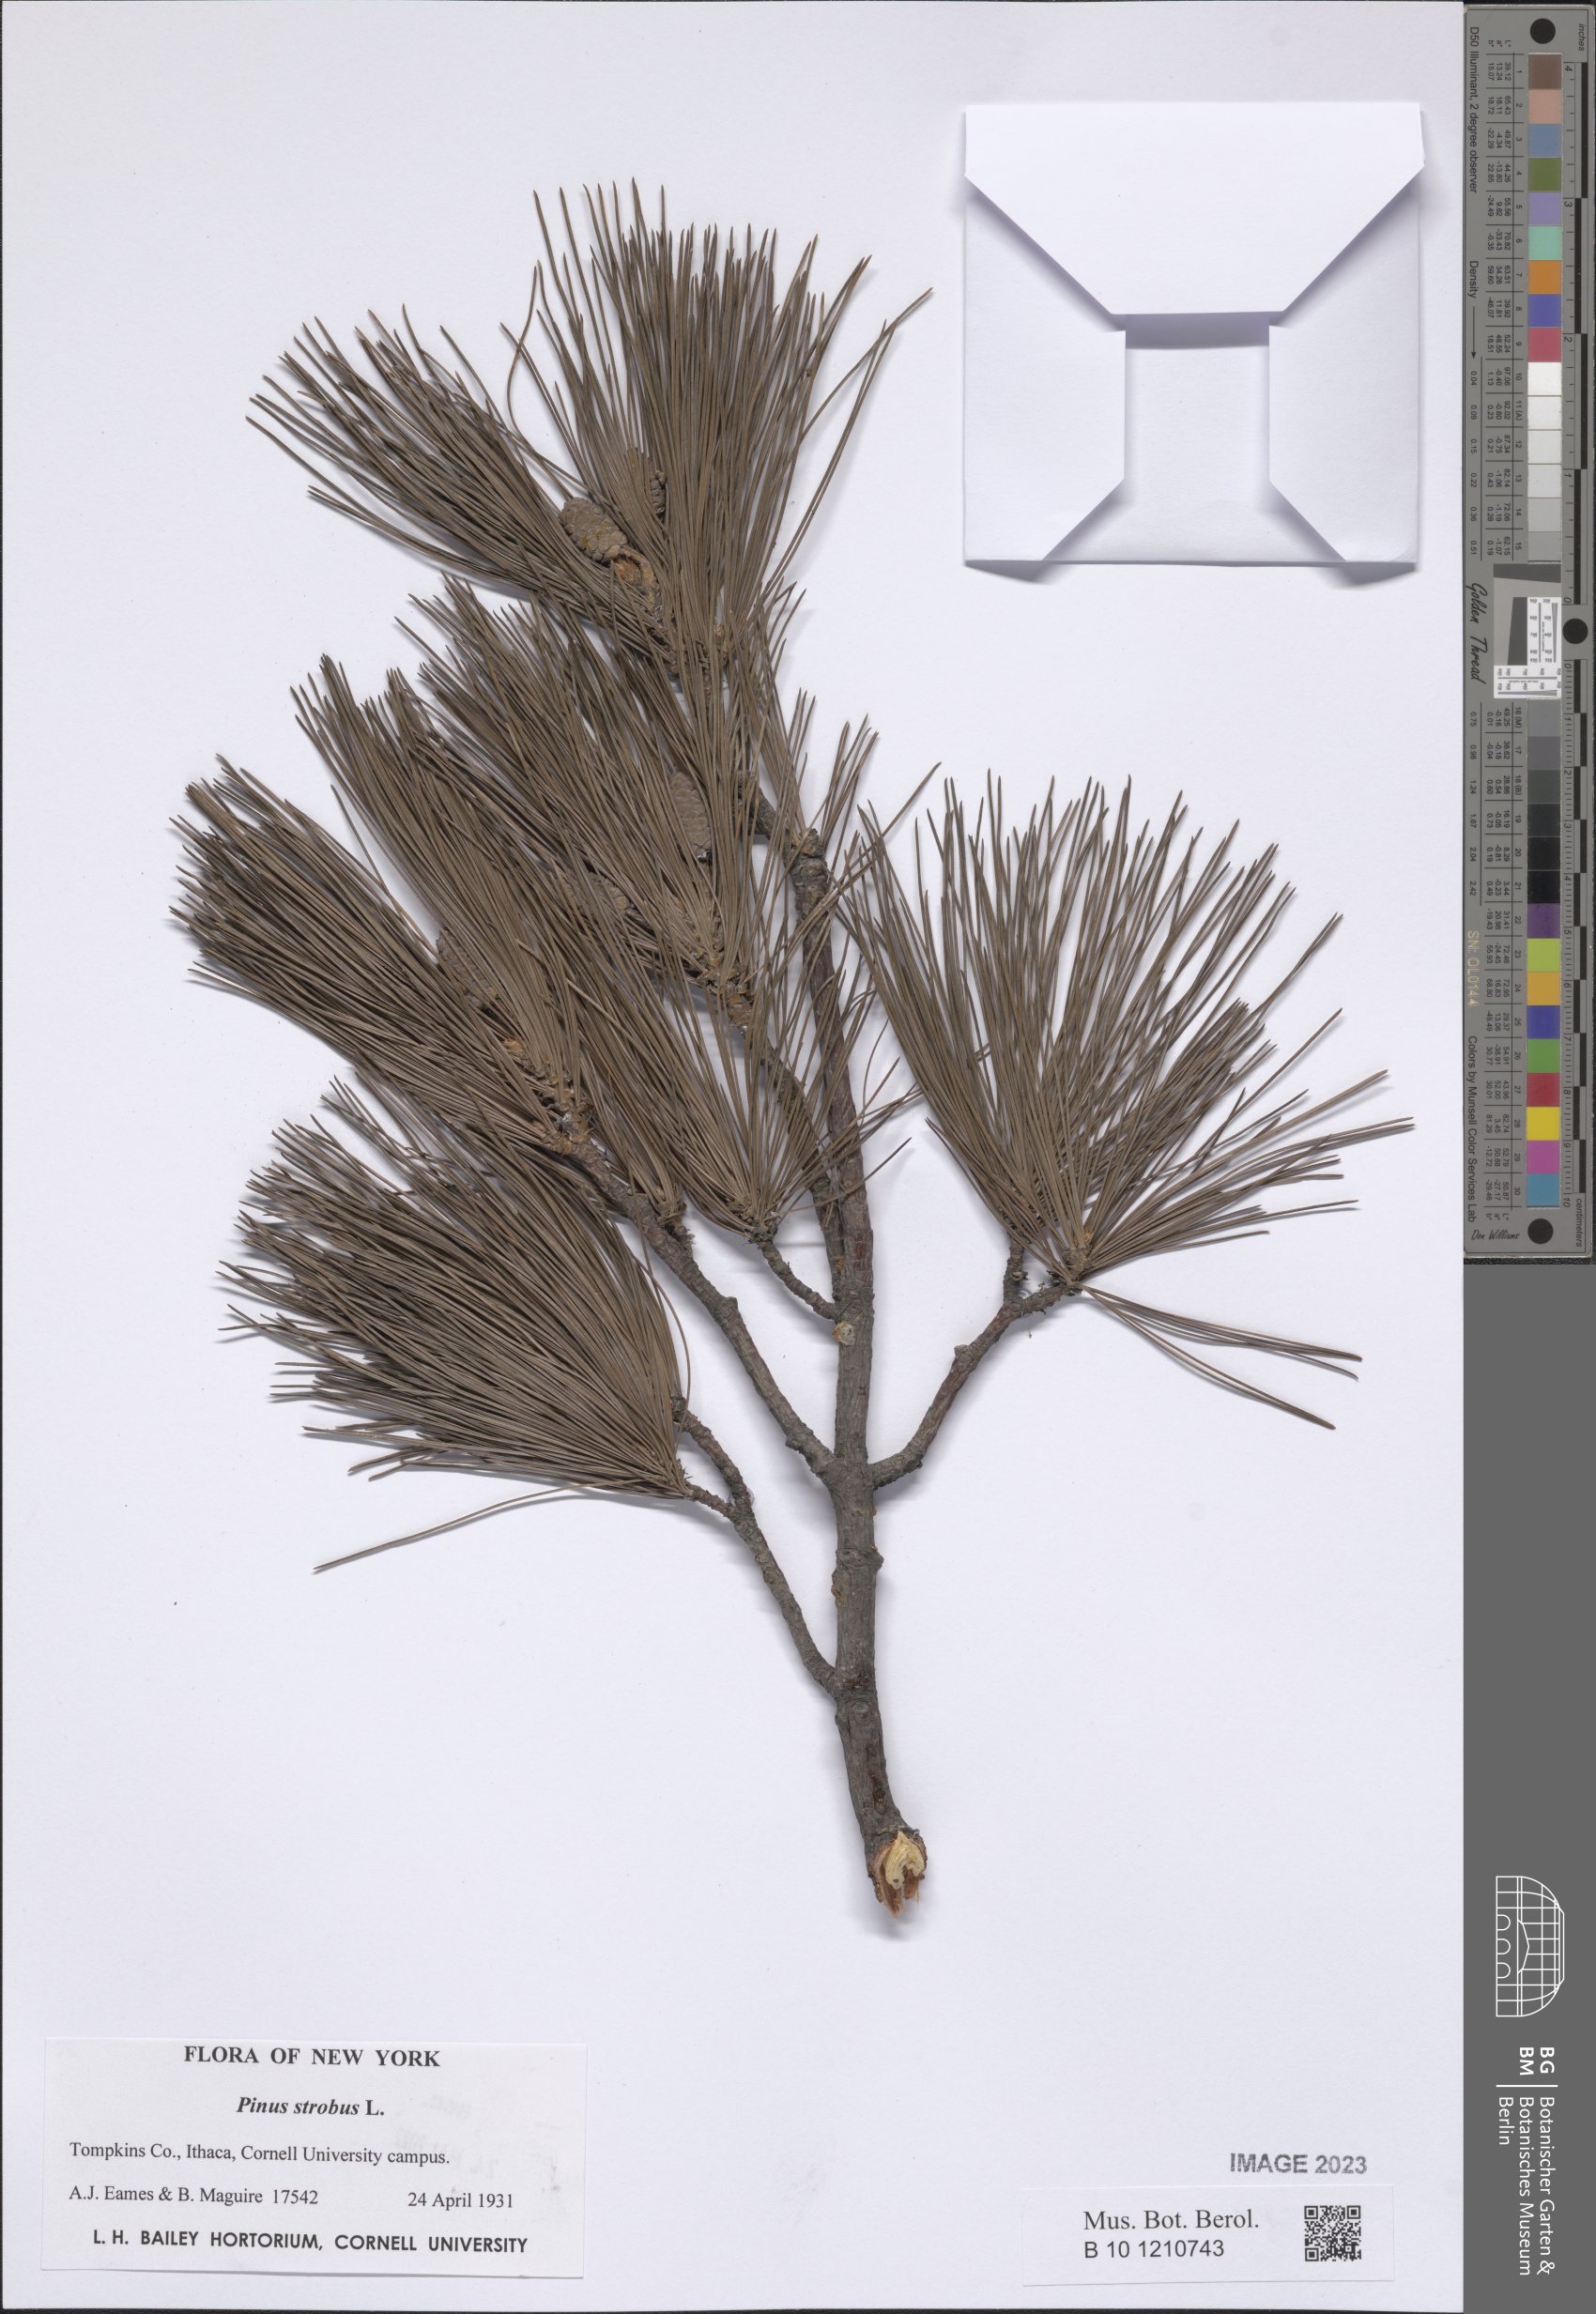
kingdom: Plantae
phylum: Tracheophyta
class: Pinopsida
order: Pinales
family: Pinaceae
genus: Pinus
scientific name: Pinus strobus
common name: Weymouth pine
